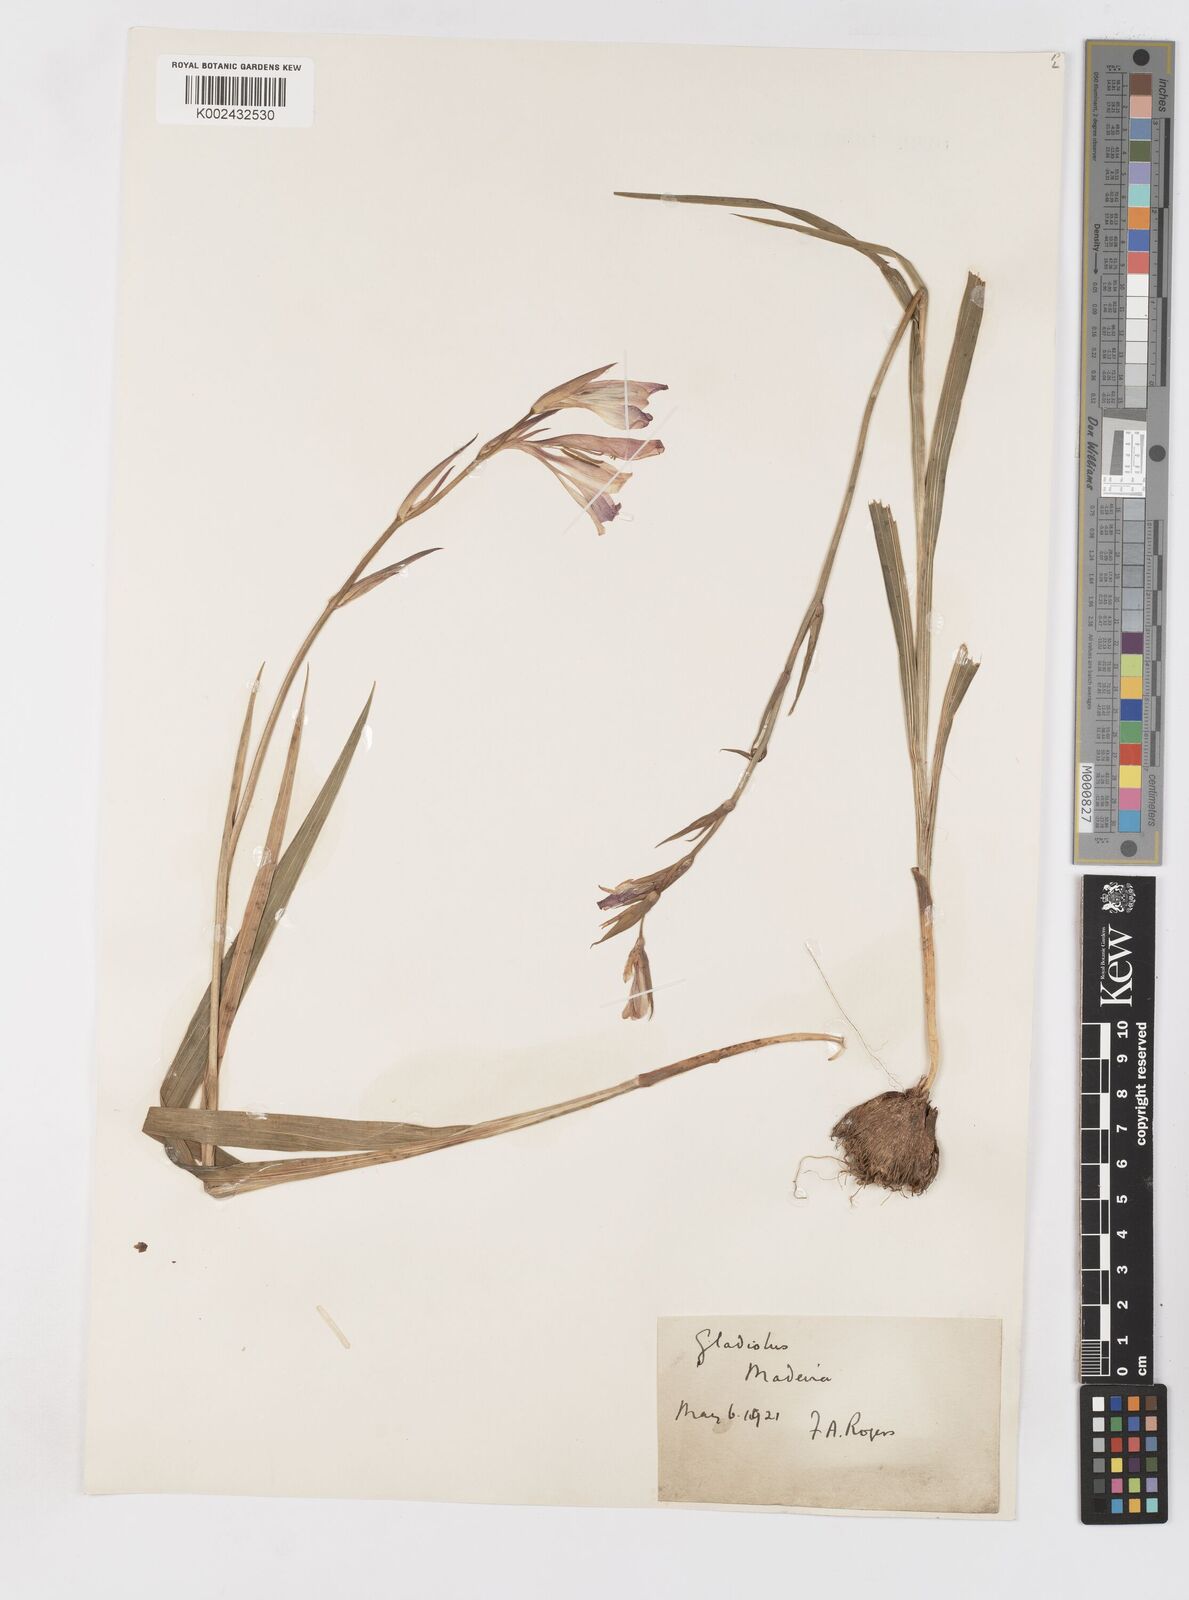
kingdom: Plantae
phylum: Tracheophyta
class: Liliopsida
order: Asparagales
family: Iridaceae
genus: Gladiolus
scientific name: Gladiolus italicus
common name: Field gladiolus
